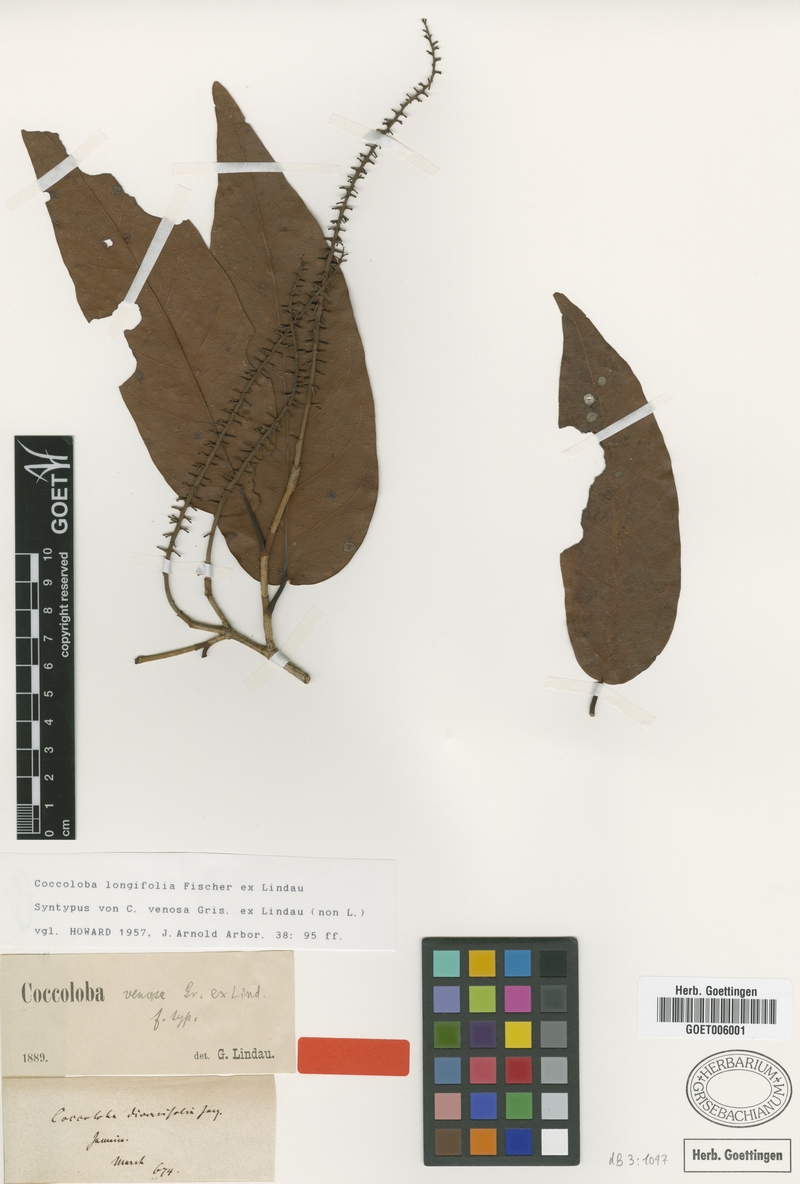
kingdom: Plantae
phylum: Tracheophyta
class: Magnoliopsida
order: Caryophyllales
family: Polygonaceae
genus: Coccoloba
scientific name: Coccoloba longifolia
